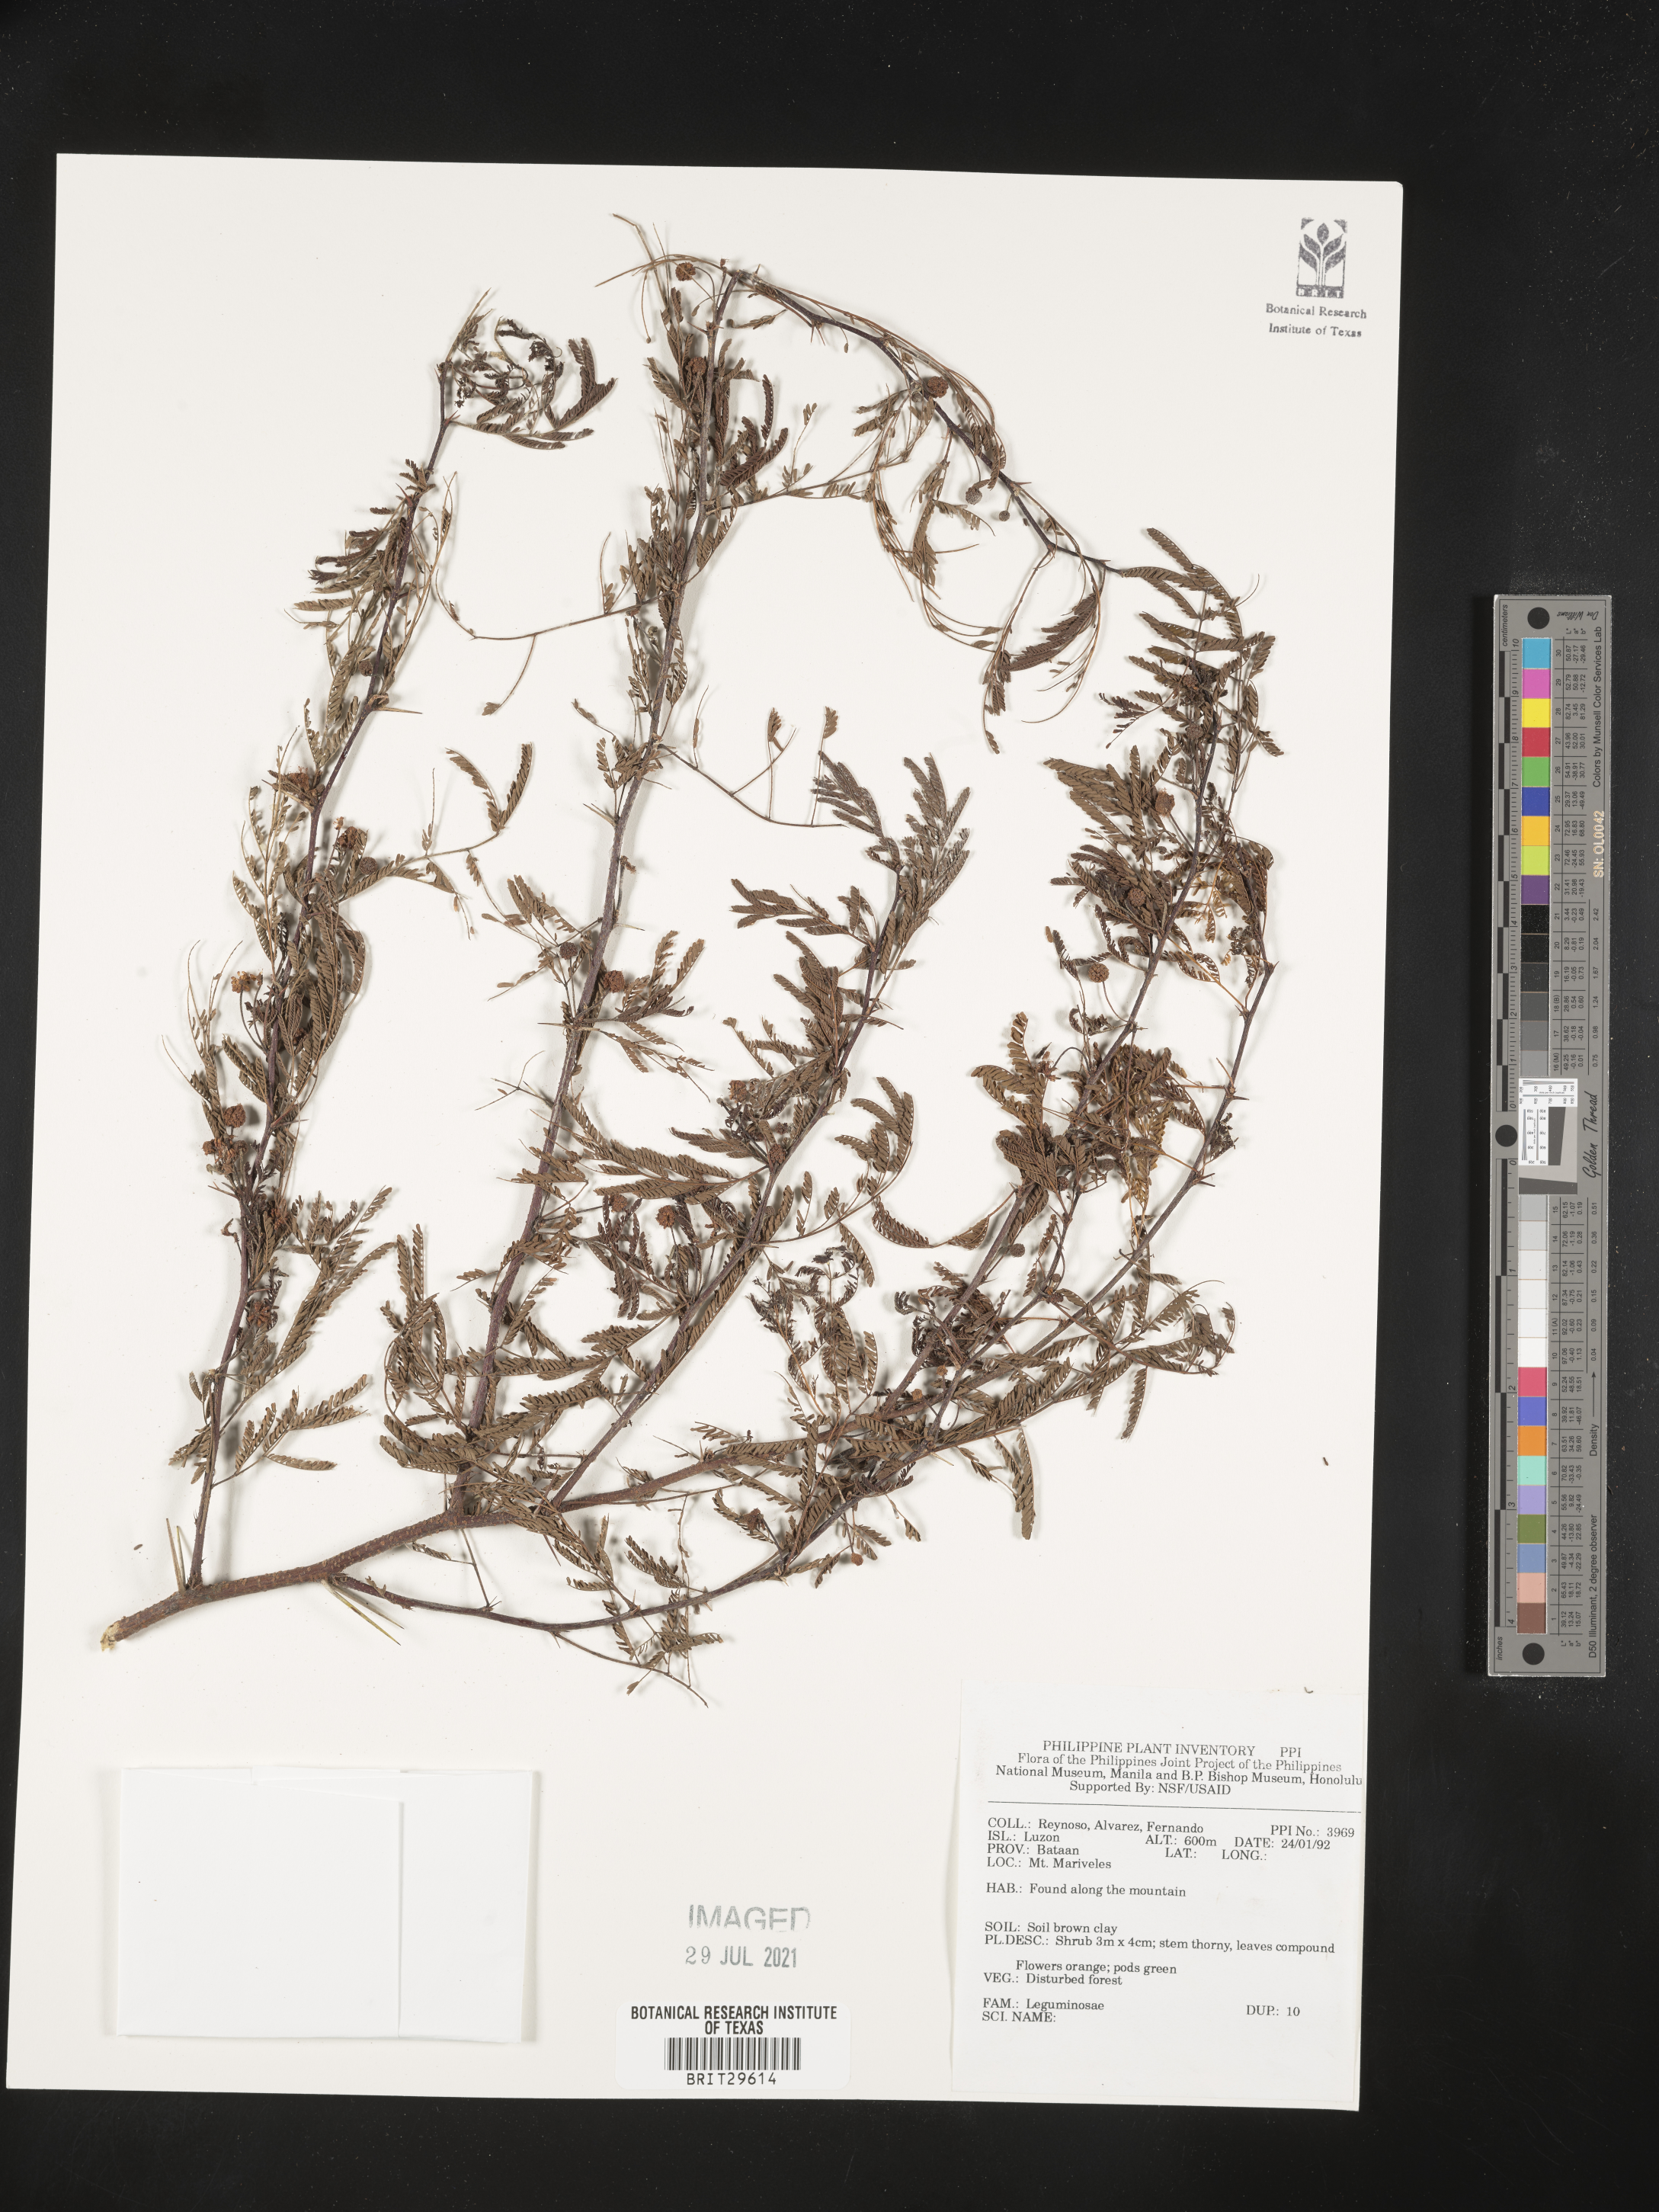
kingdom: Plantae
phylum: Tracheophyta
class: Magnoliopsida
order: Fabales
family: Fabaceae
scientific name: Fabaceae
